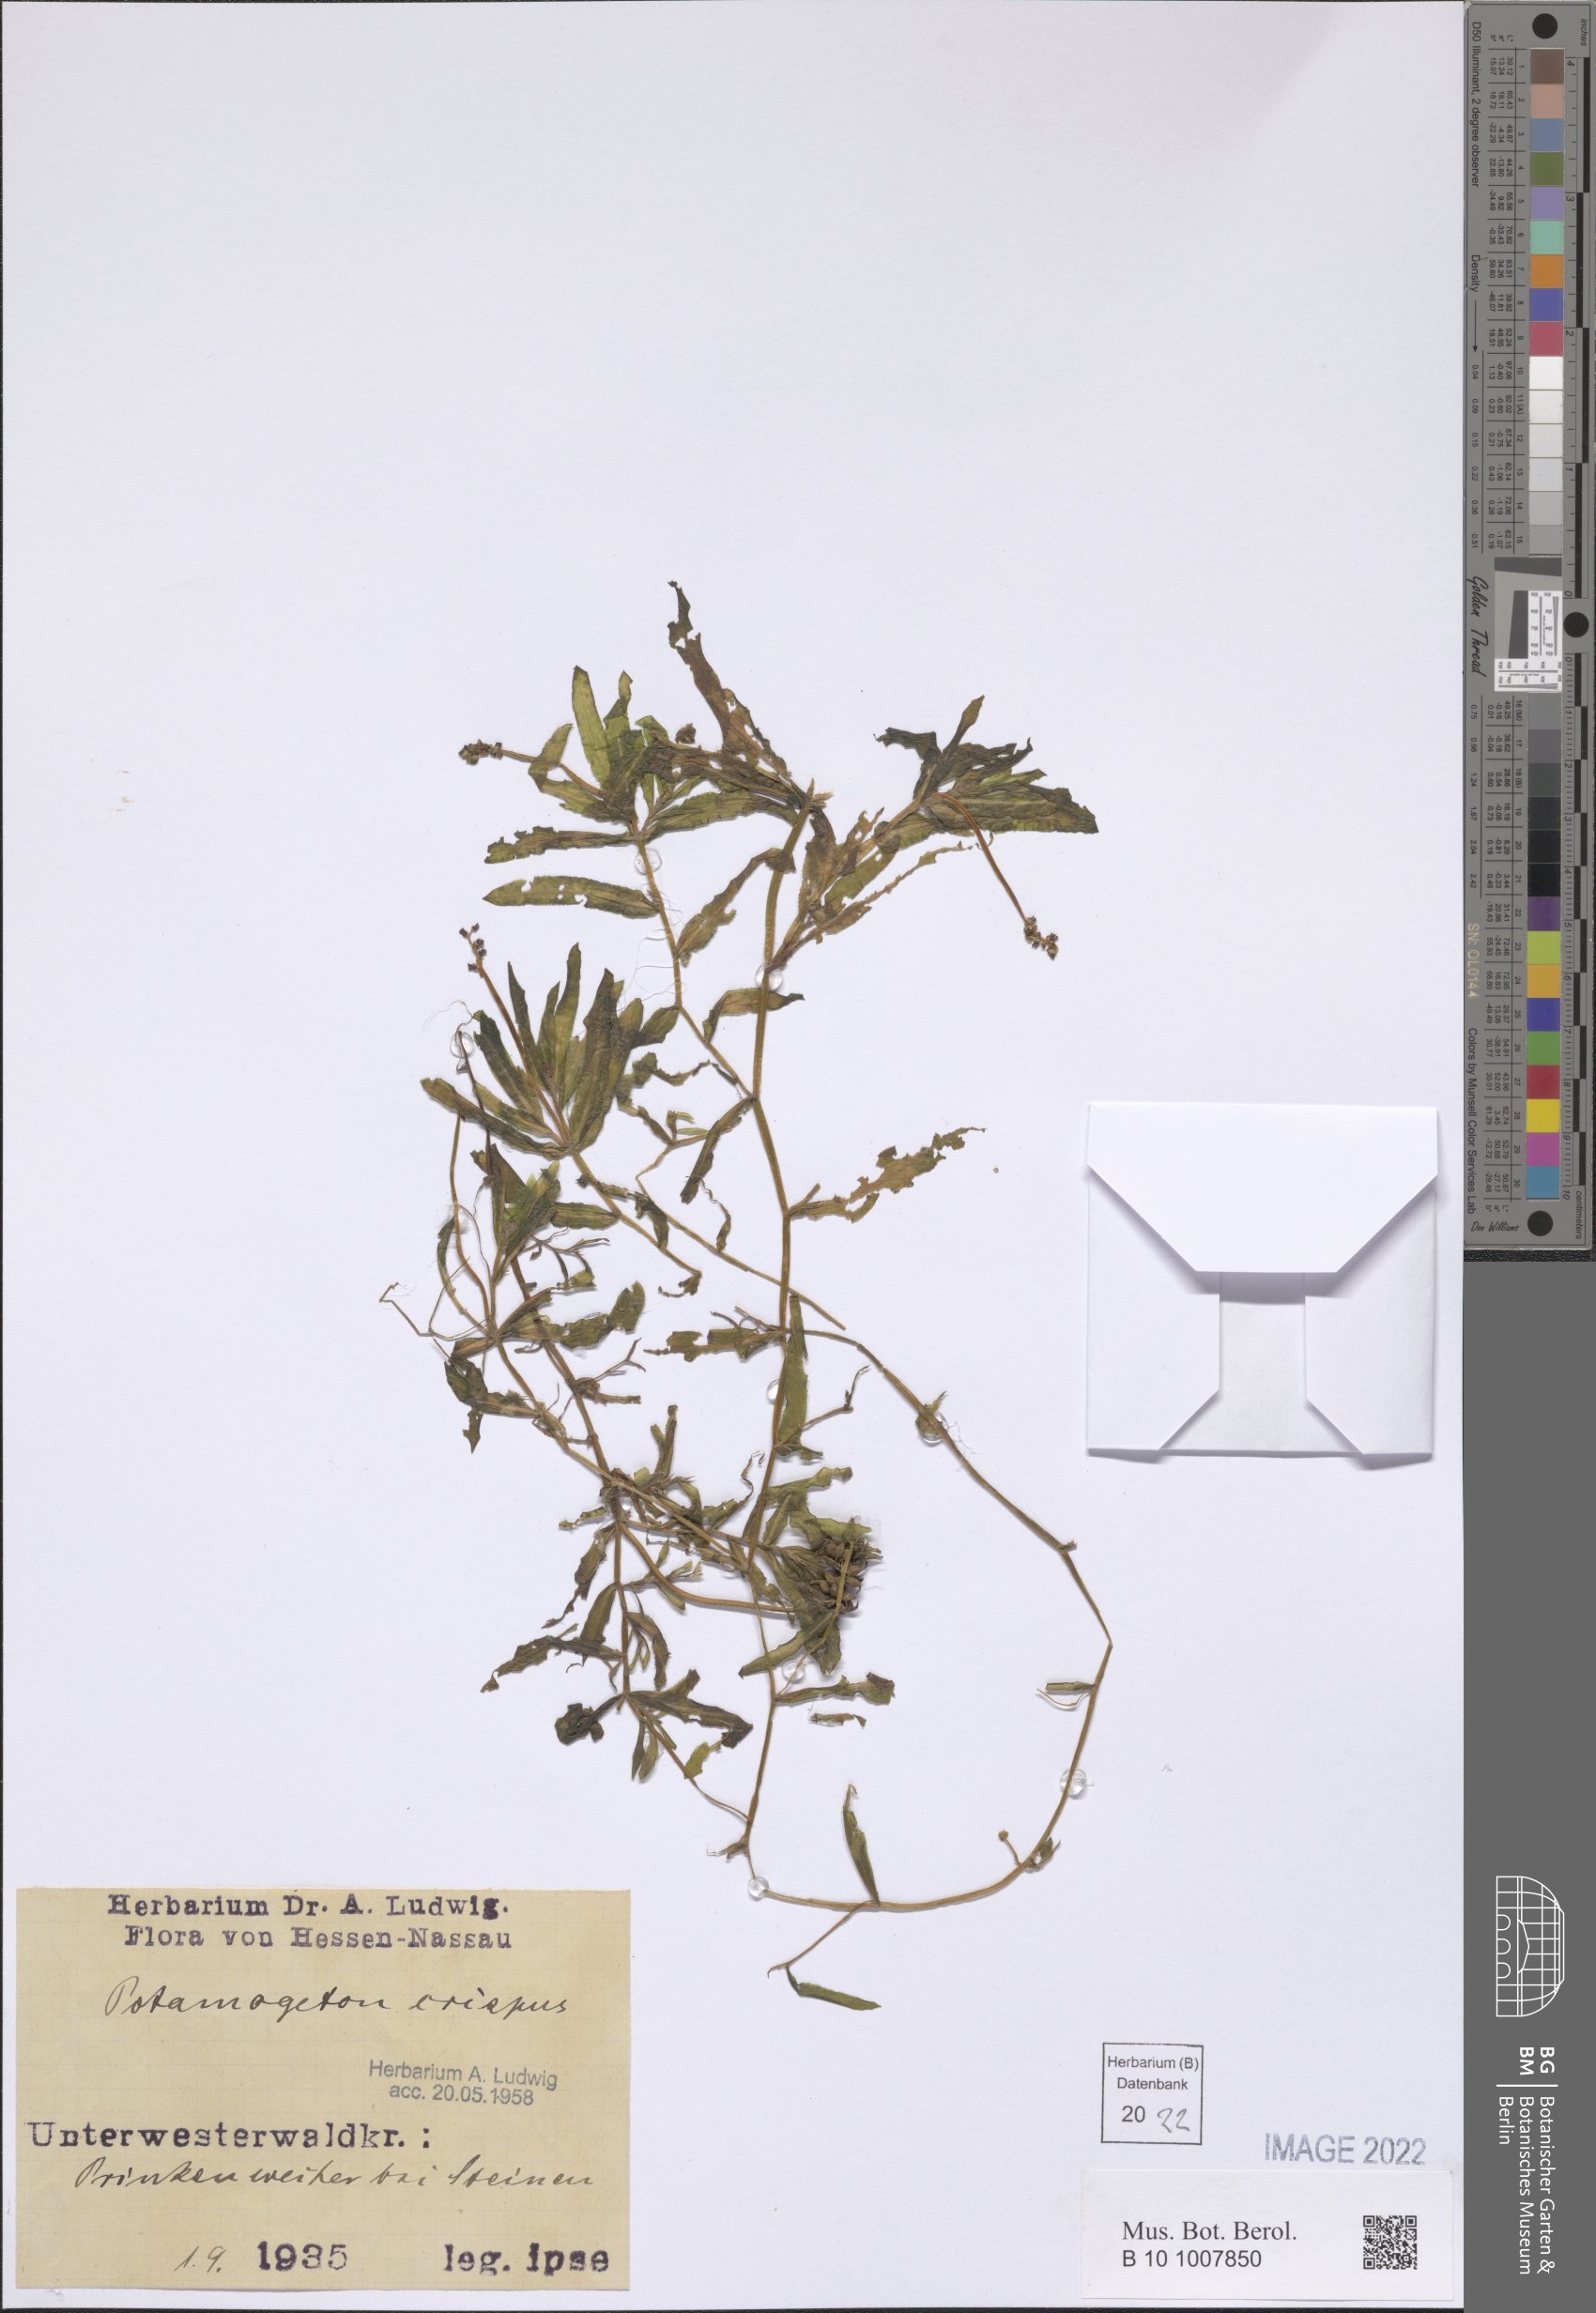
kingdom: Plantae
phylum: Tracheophyta
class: Liliopsida
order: Alismatales
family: Potamogetonaceae
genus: Potamogeton
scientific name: Potamogeton crispus
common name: Curled pondweed
